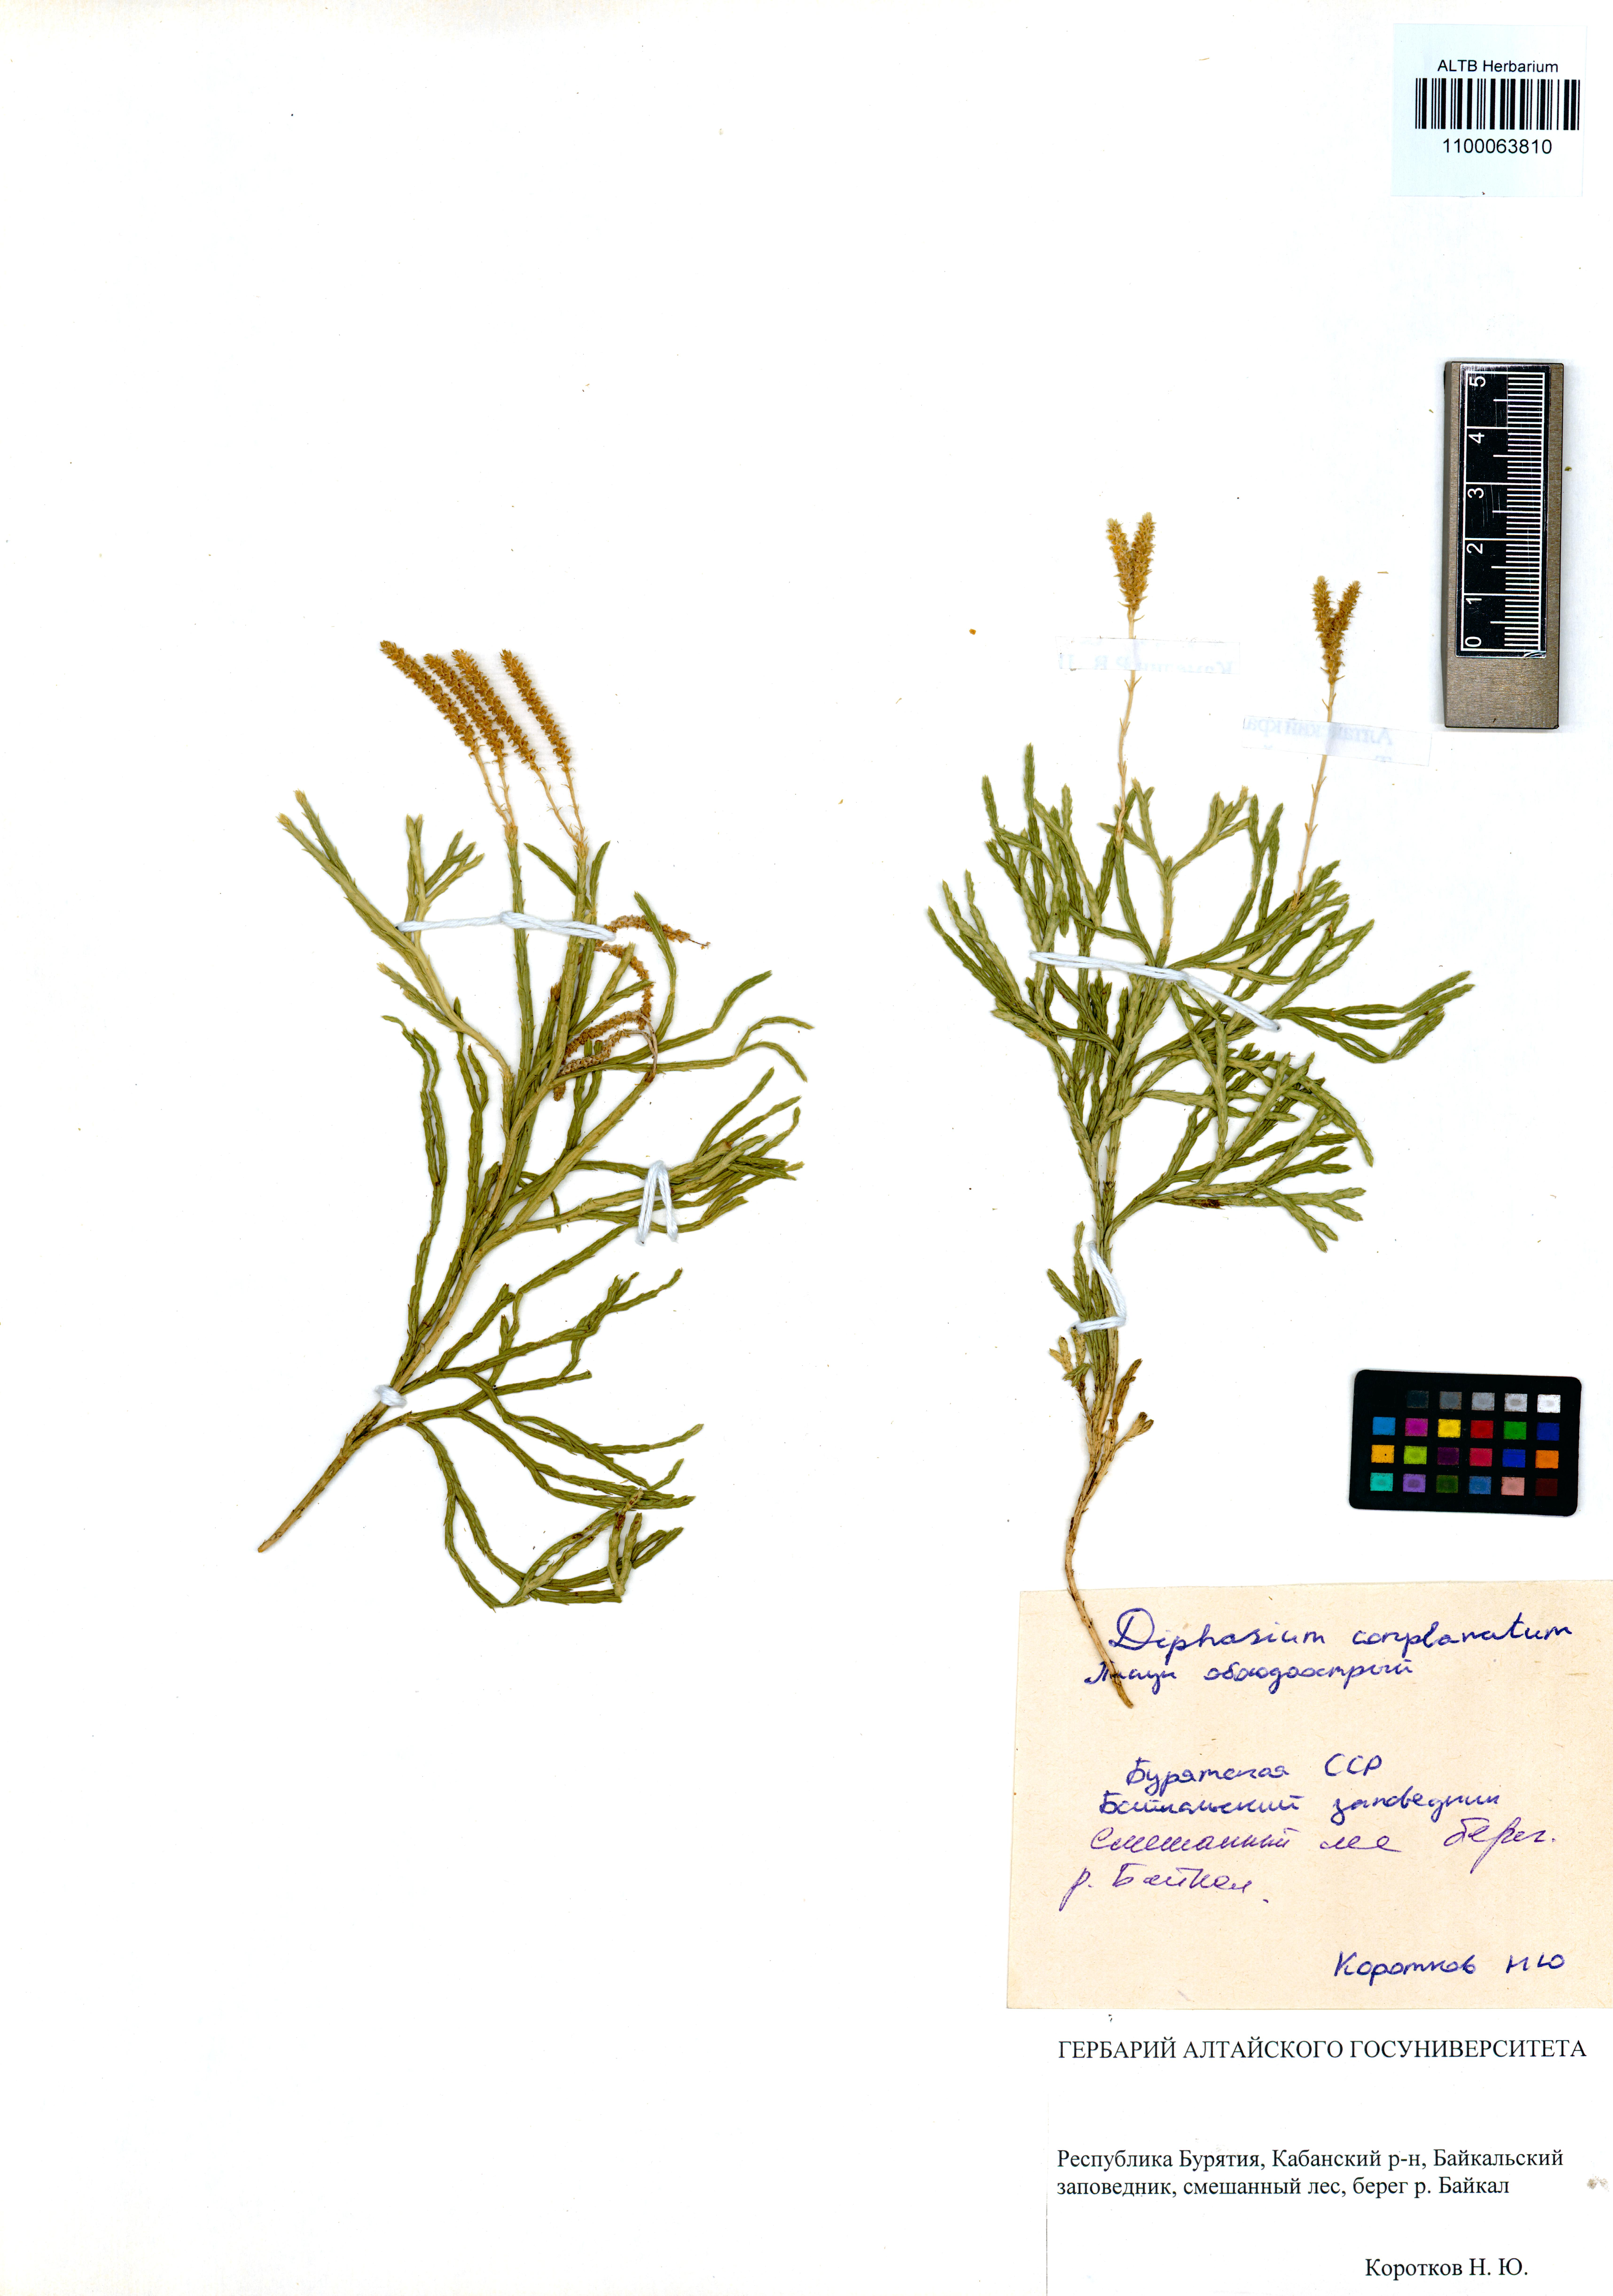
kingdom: Plantae
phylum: Tracheophyta
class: Lycopodiopsida
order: Lycopodiales
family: Lycopodiaceae
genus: Diphasiastrum
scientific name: Diphasiastrum complanatum
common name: Northern running-pine
